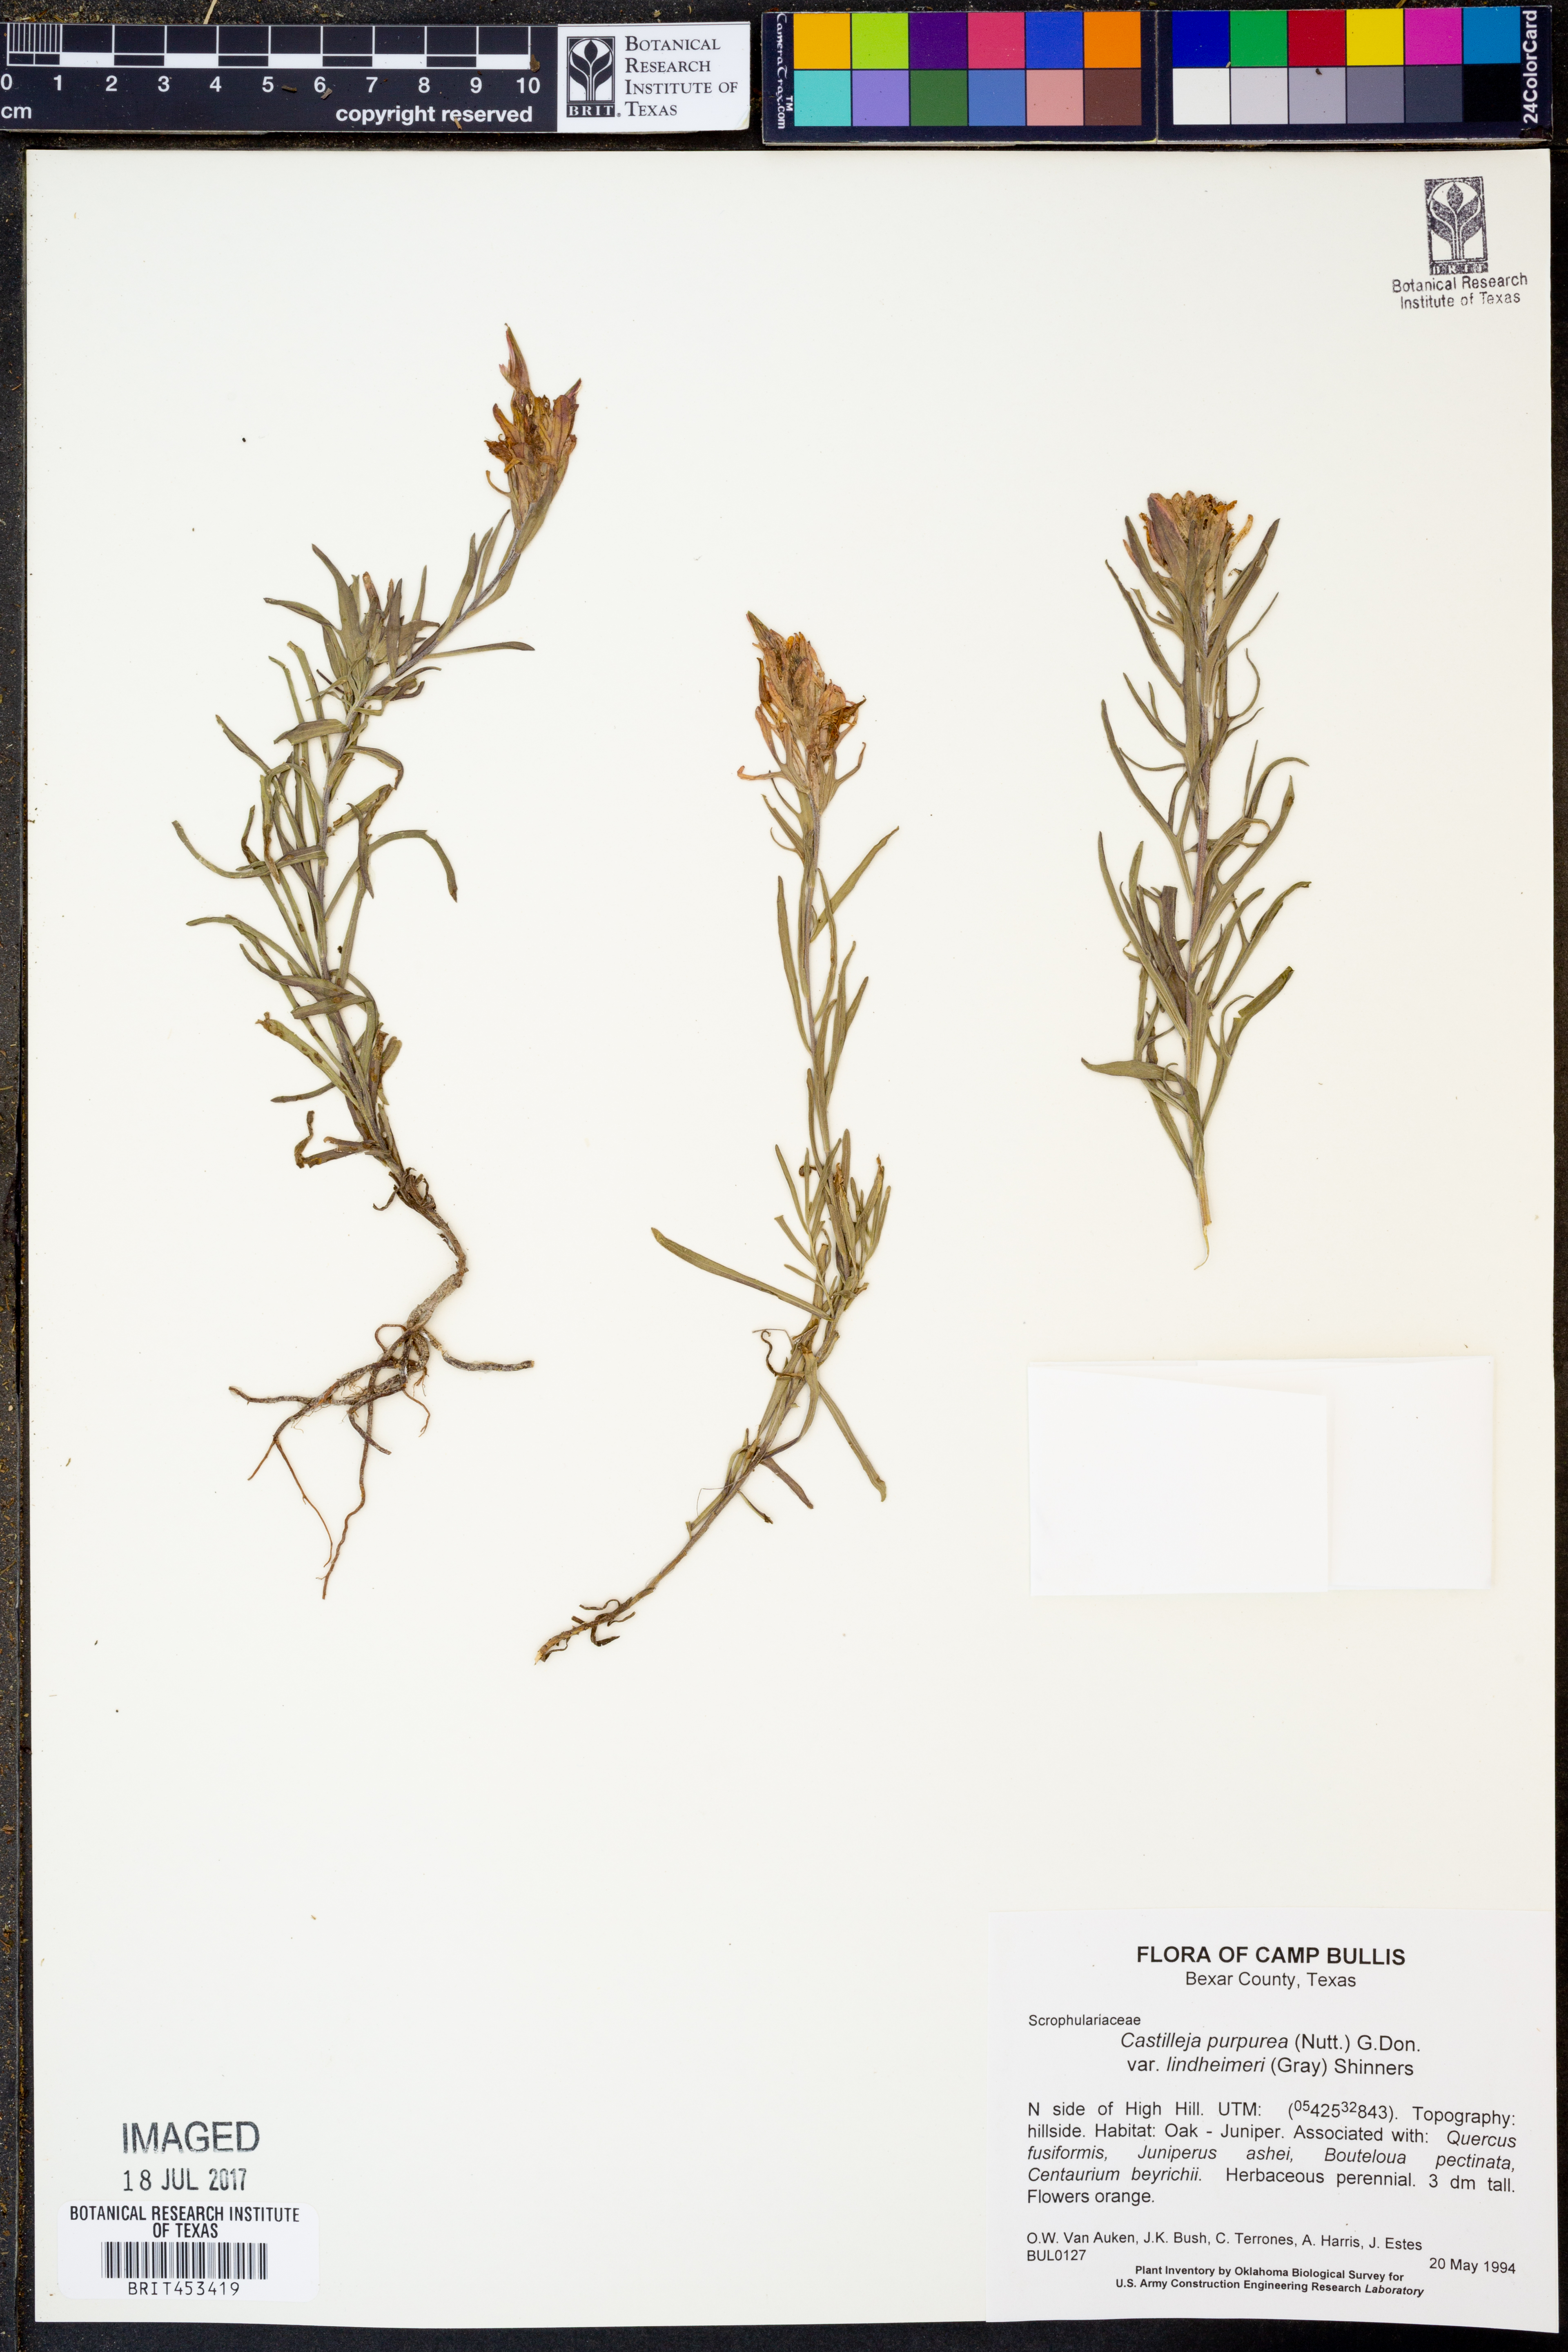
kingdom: Plantae
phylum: Tracheophyta
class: Magnoliopsida
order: Lamiales
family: Orobanchaceae
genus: Castilleja
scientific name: Castilleja lindheimeri
